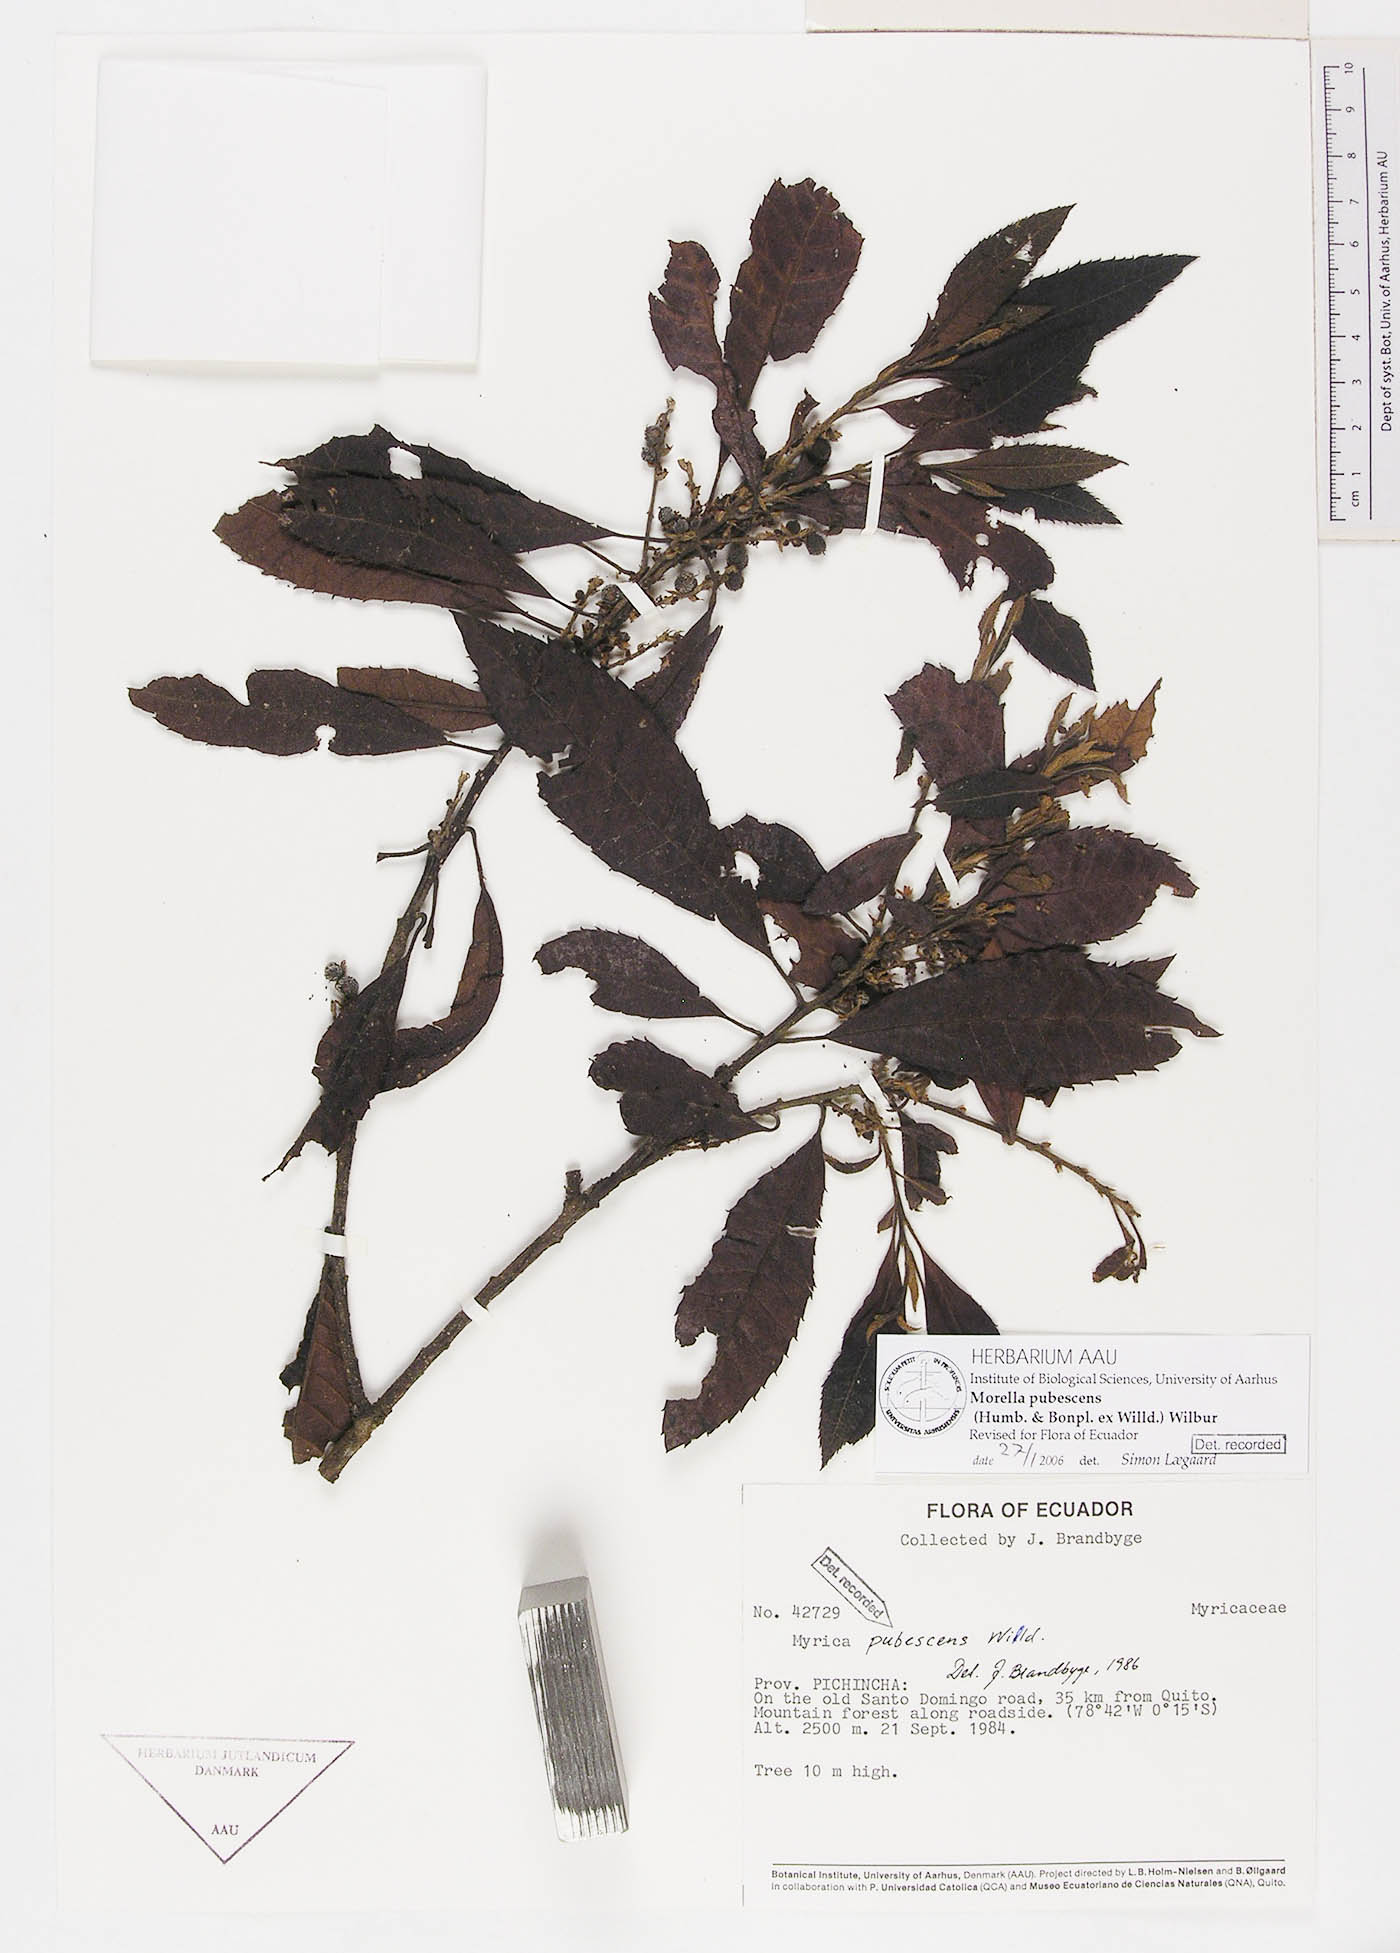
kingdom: Plantae
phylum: Tracheophyta
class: Magnoliopsida
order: Fagales
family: Myricaceae
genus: Morella
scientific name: Morella pubescens
